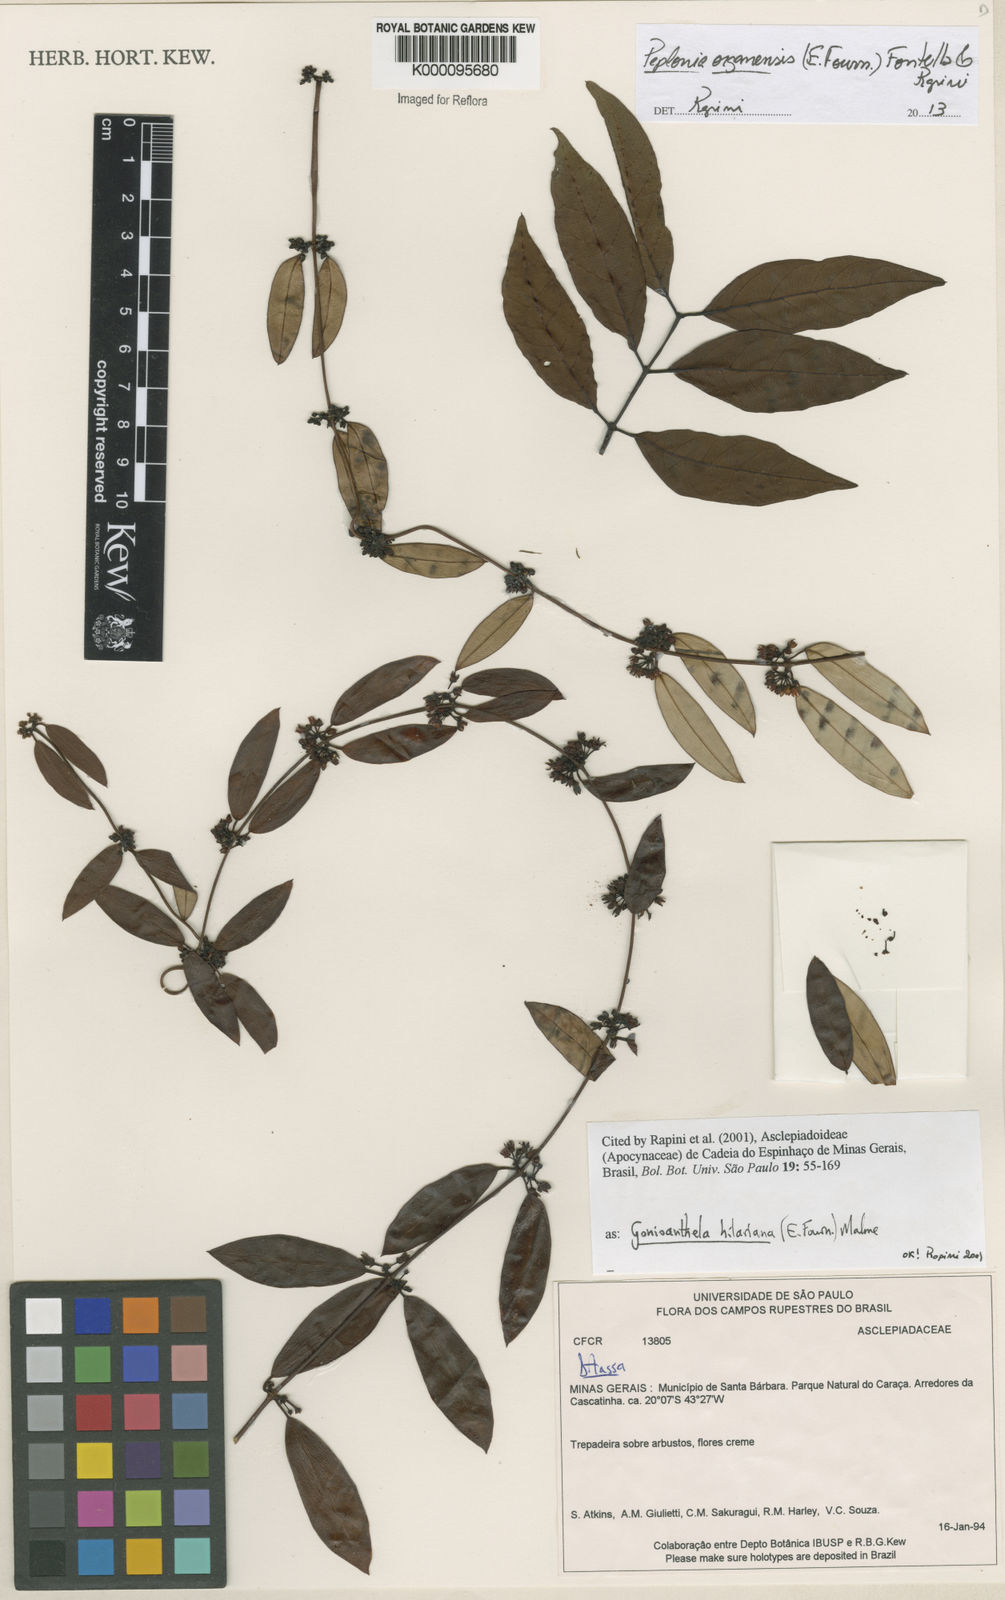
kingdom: Plantae
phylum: Tracheophyta
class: Magnoliopsida
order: Gentianales
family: Apocynaceae
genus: Peplonia
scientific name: Peplonia organensis
